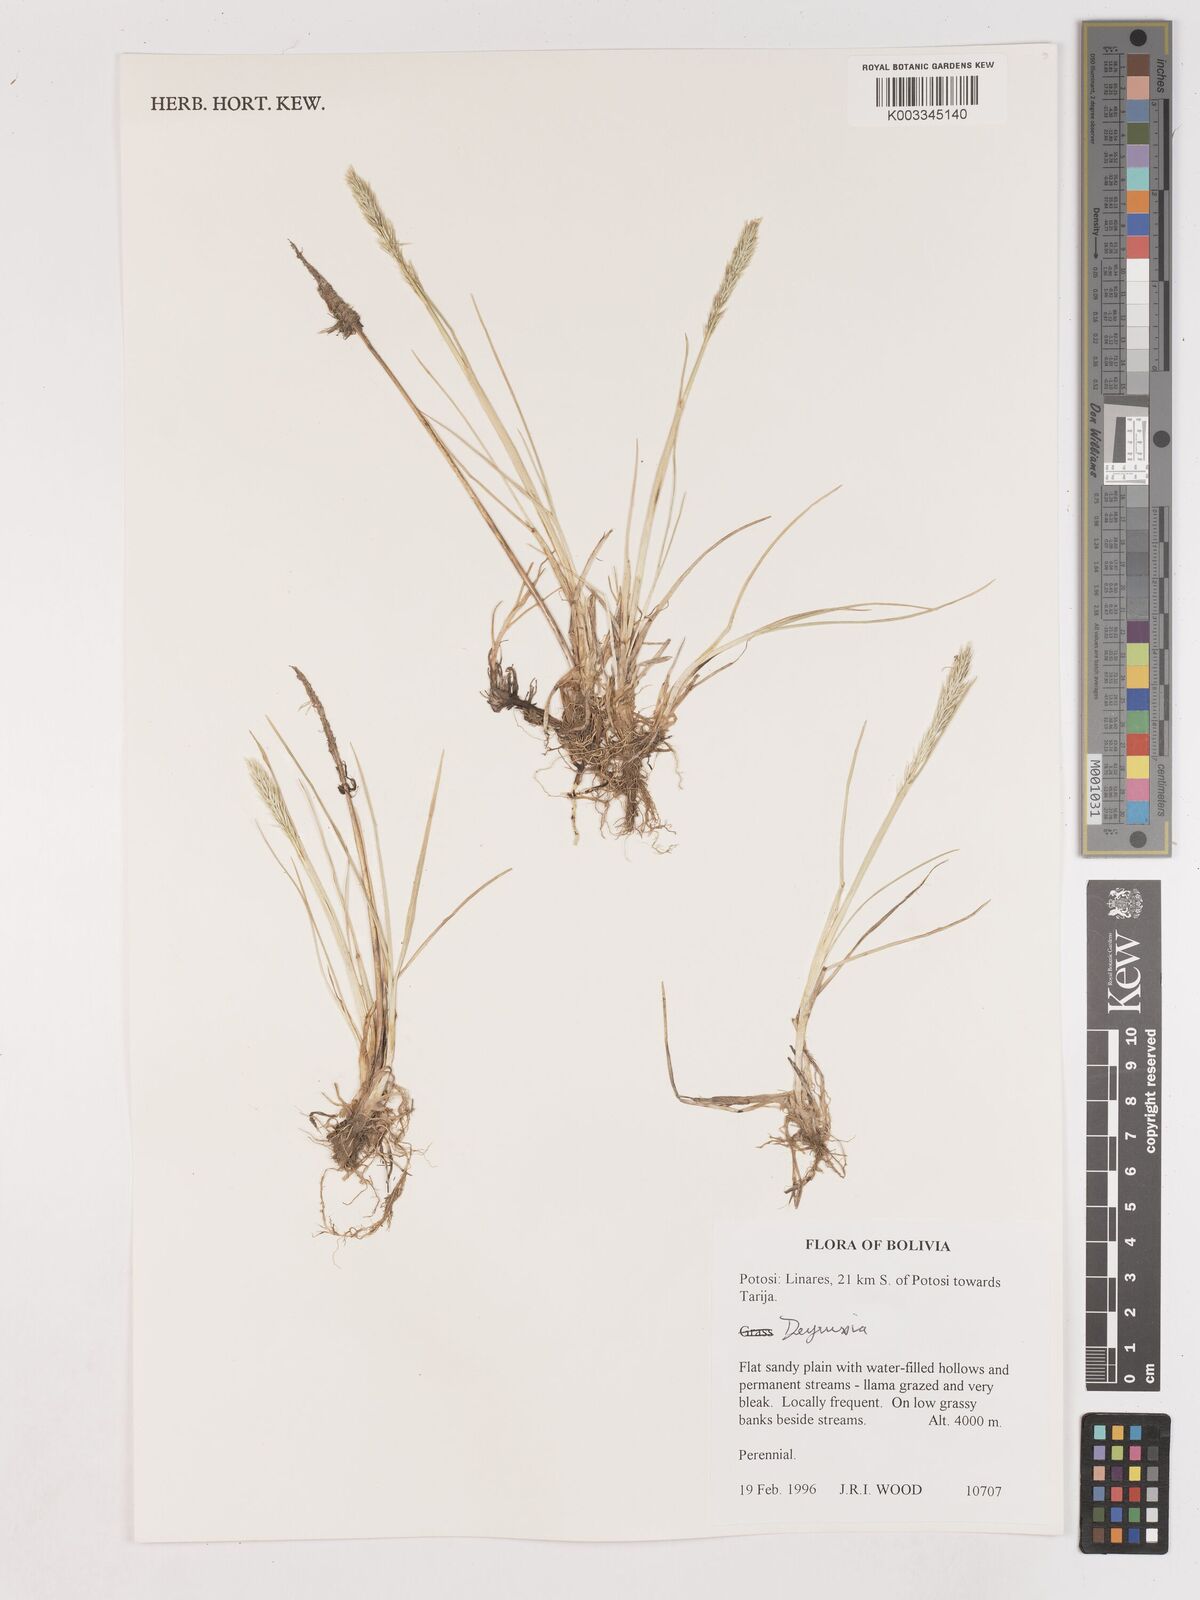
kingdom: Plantae
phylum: Tracheophyta
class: Liliopsida
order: Poales
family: Poaceae
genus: Calamagrostis
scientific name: Calamagrostis
